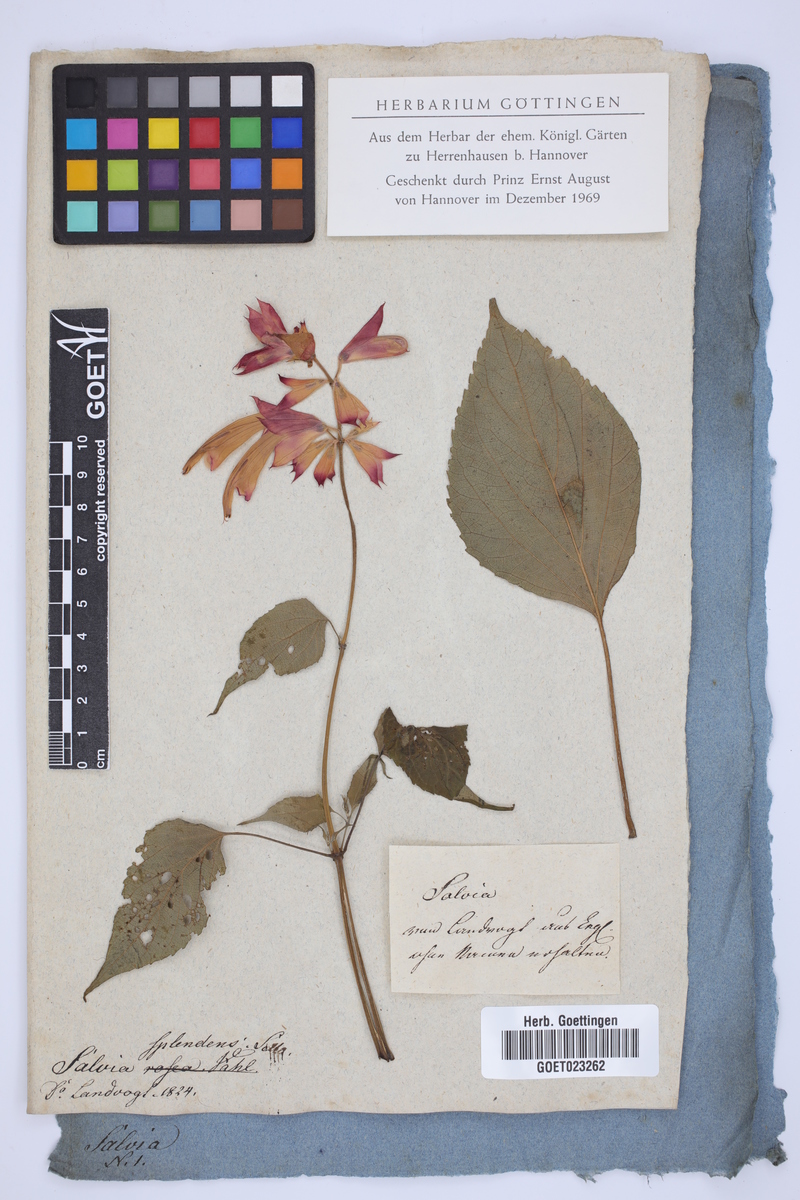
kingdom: Plantae
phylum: Tracheophyta
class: Magnoliopsida
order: Lamiales
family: Lamiaceae
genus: Salvia
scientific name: Salvia splendens
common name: Scarlet sage
